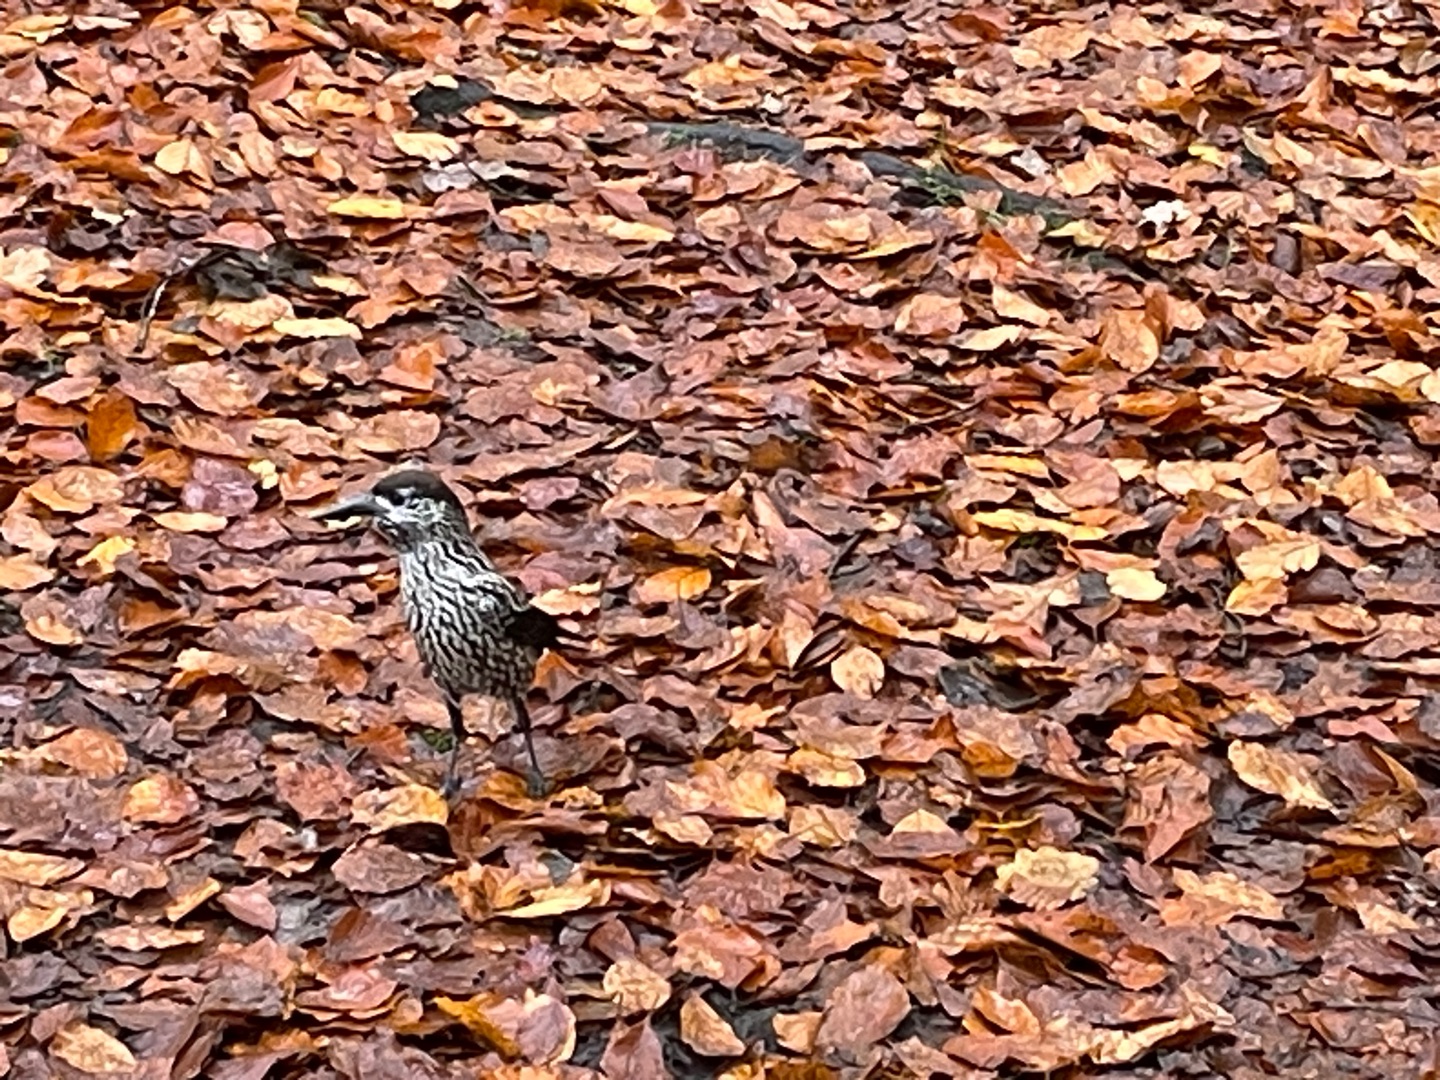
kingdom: Animalia
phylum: Chordata
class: Aves
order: Passeriformes
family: Corvidae
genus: Nucifraga
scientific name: Nucifraga caryocatactes
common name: Tyndnæbbet nøddekrige
